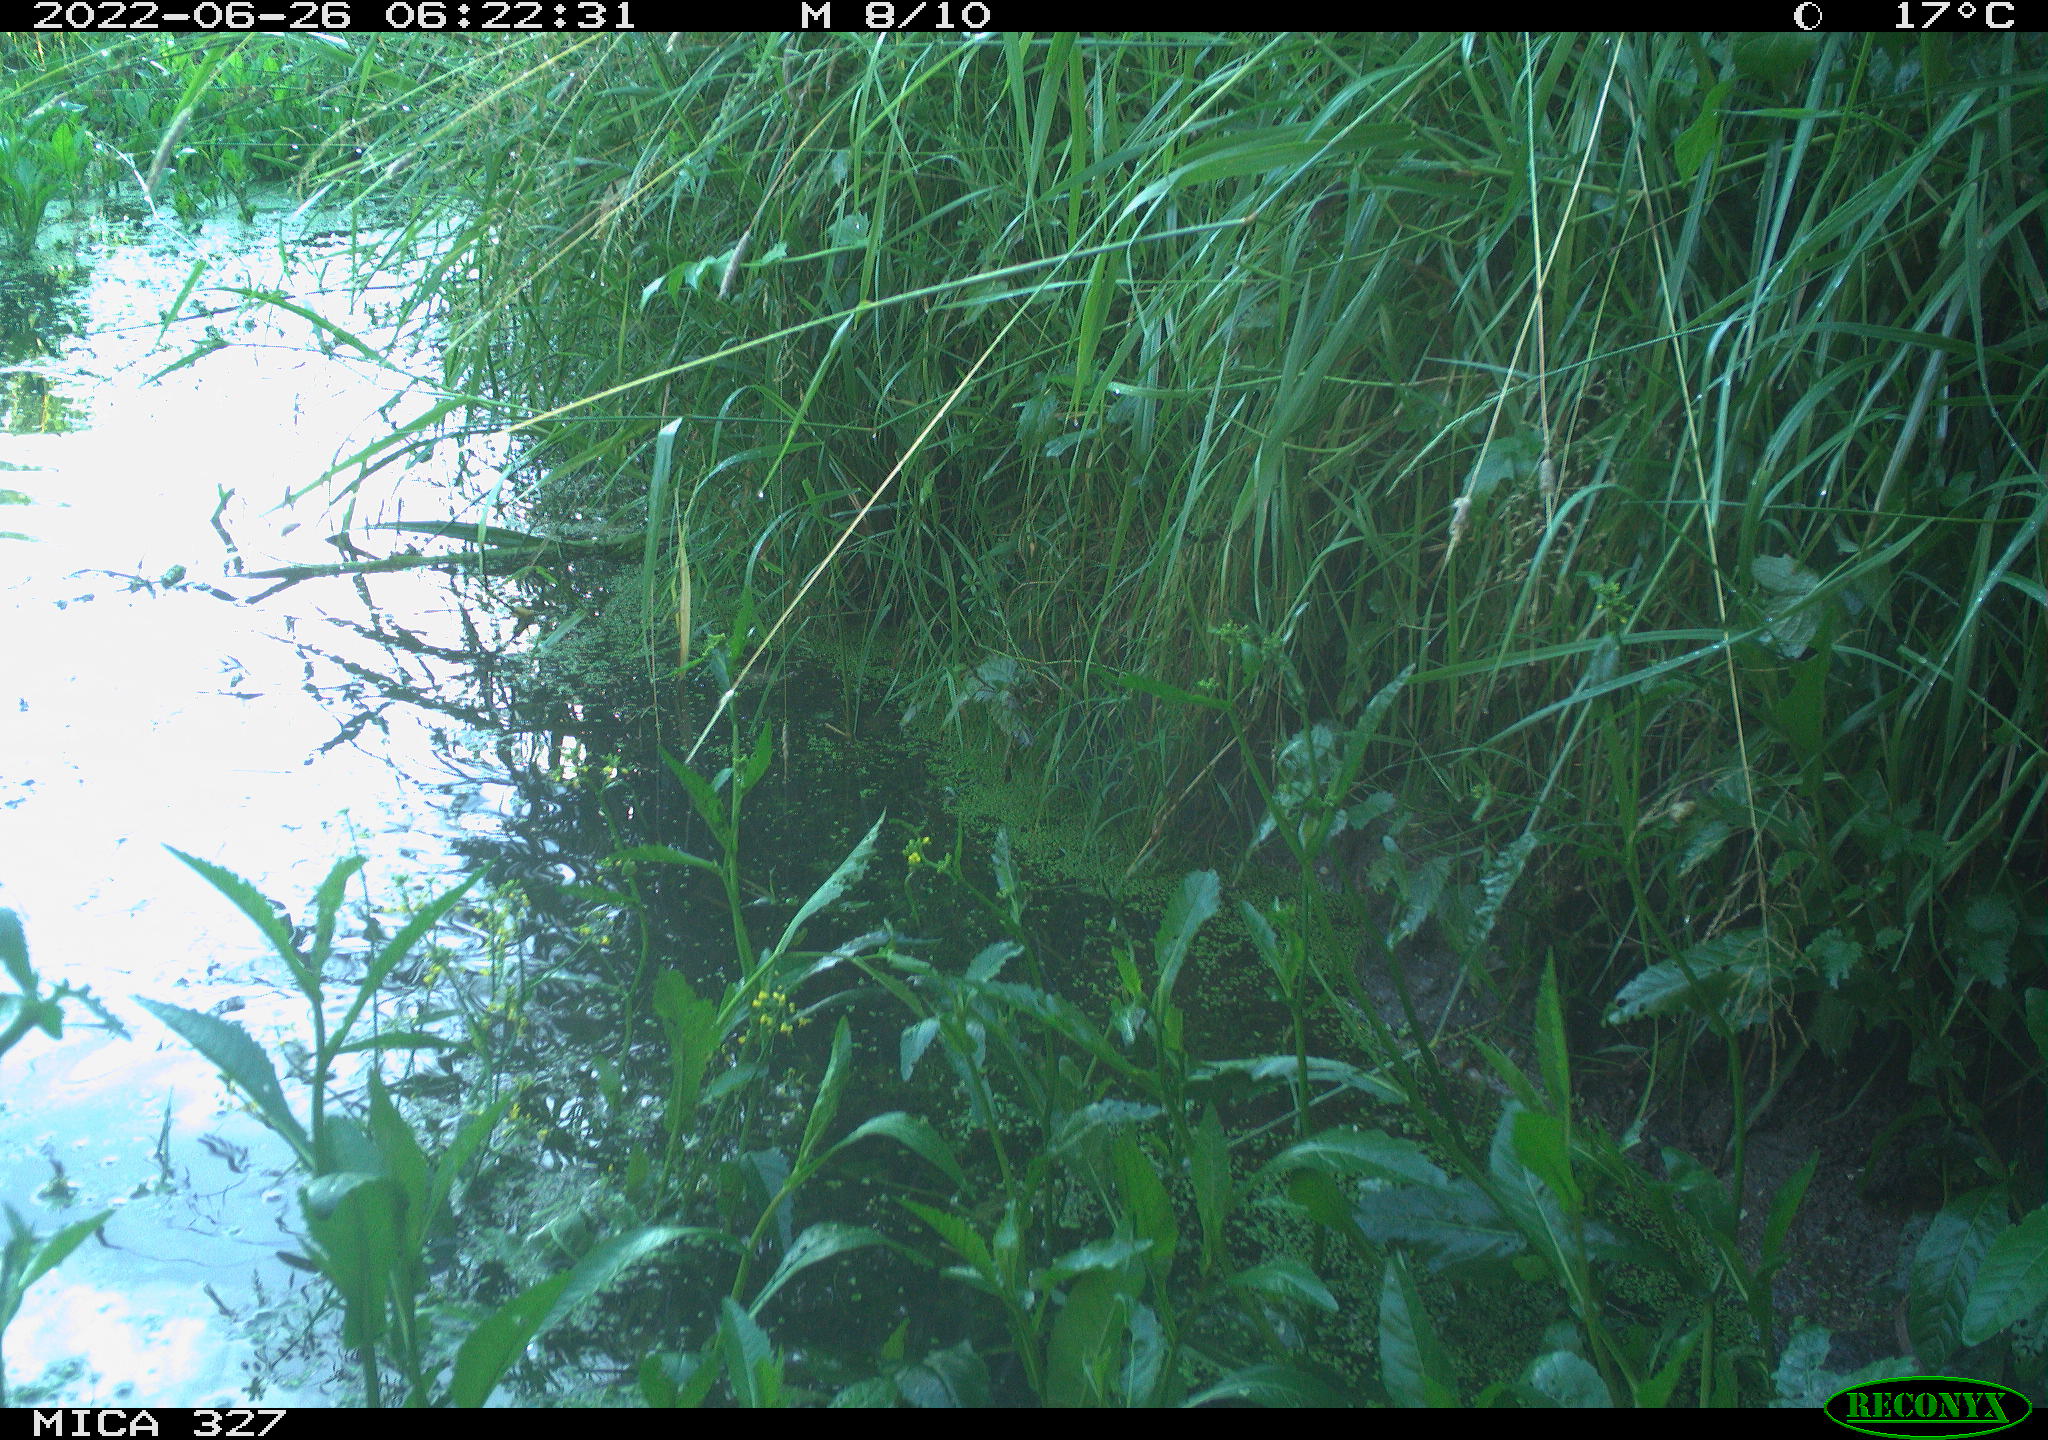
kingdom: Animalia
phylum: Chordata
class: Aves
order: Gruiformes
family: Rallidae
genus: Gallinula
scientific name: Gallinula chloropus
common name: Common moorhen
